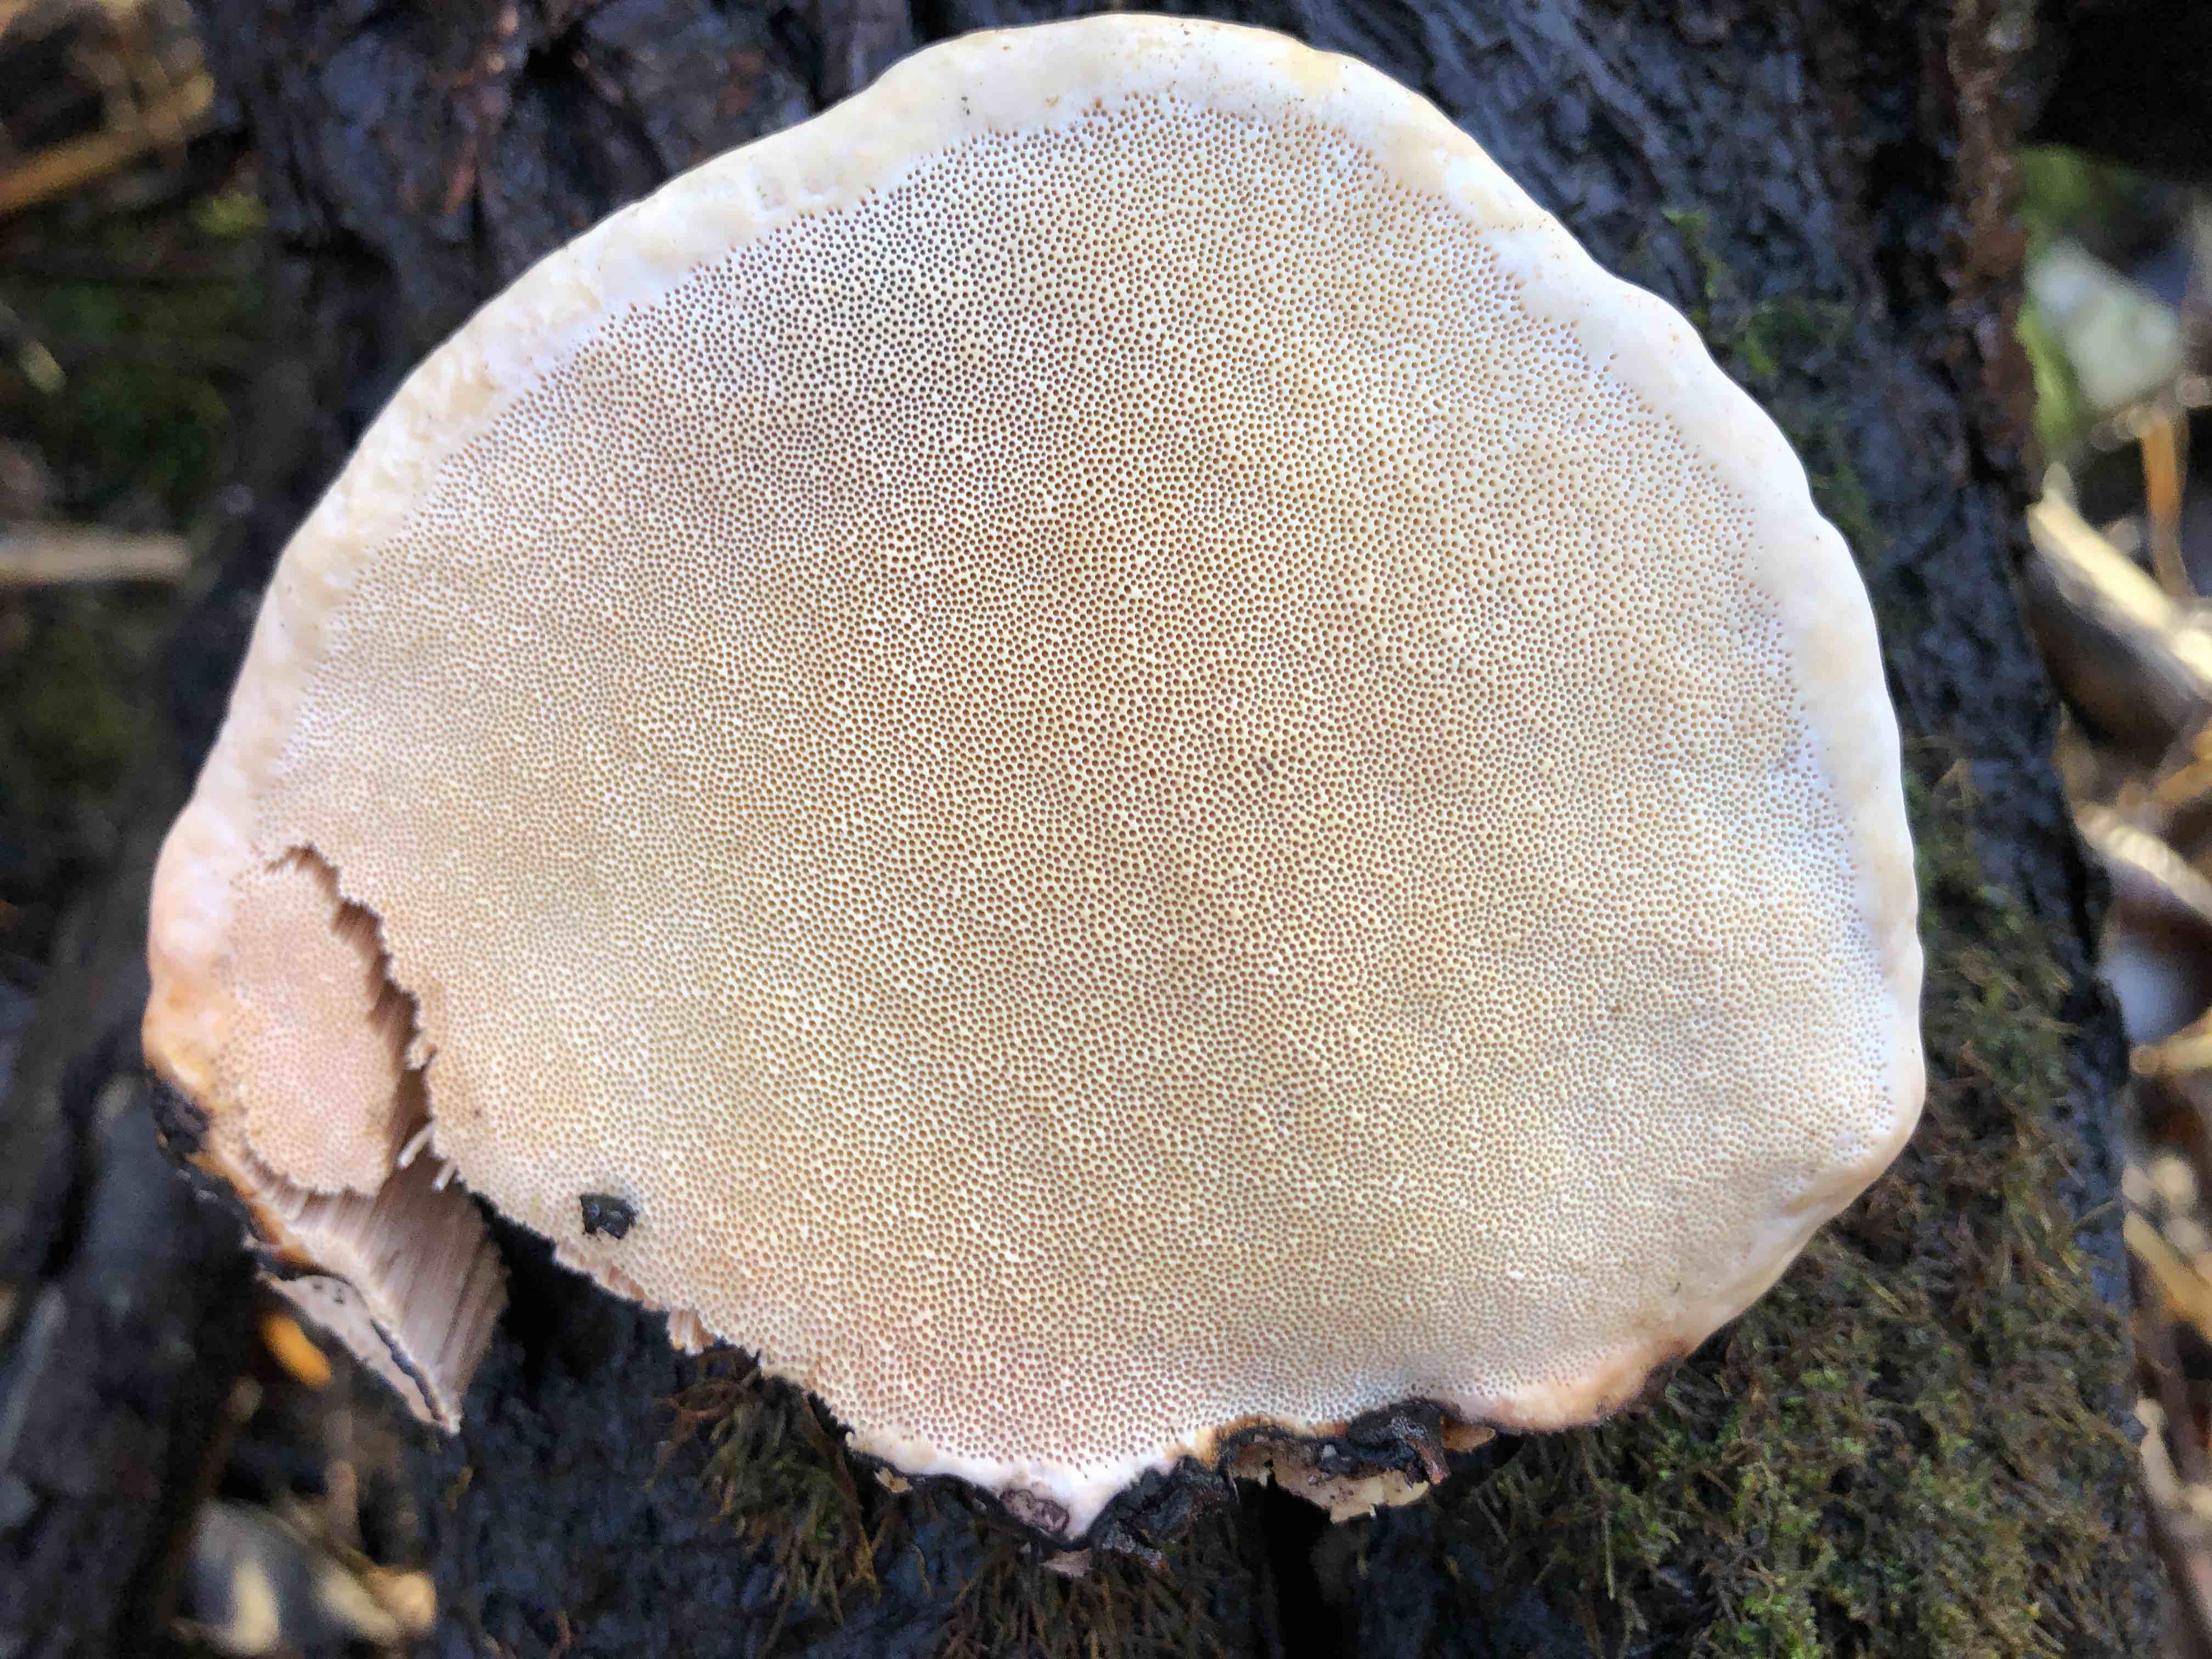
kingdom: Fungi
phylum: Basidiomycota
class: Agaricomycetes
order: Polyporales
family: Fomitopsidaceae
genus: Fomitopsis
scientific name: Fomitopsis pinicola
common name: randbæltet hovporesvamp
